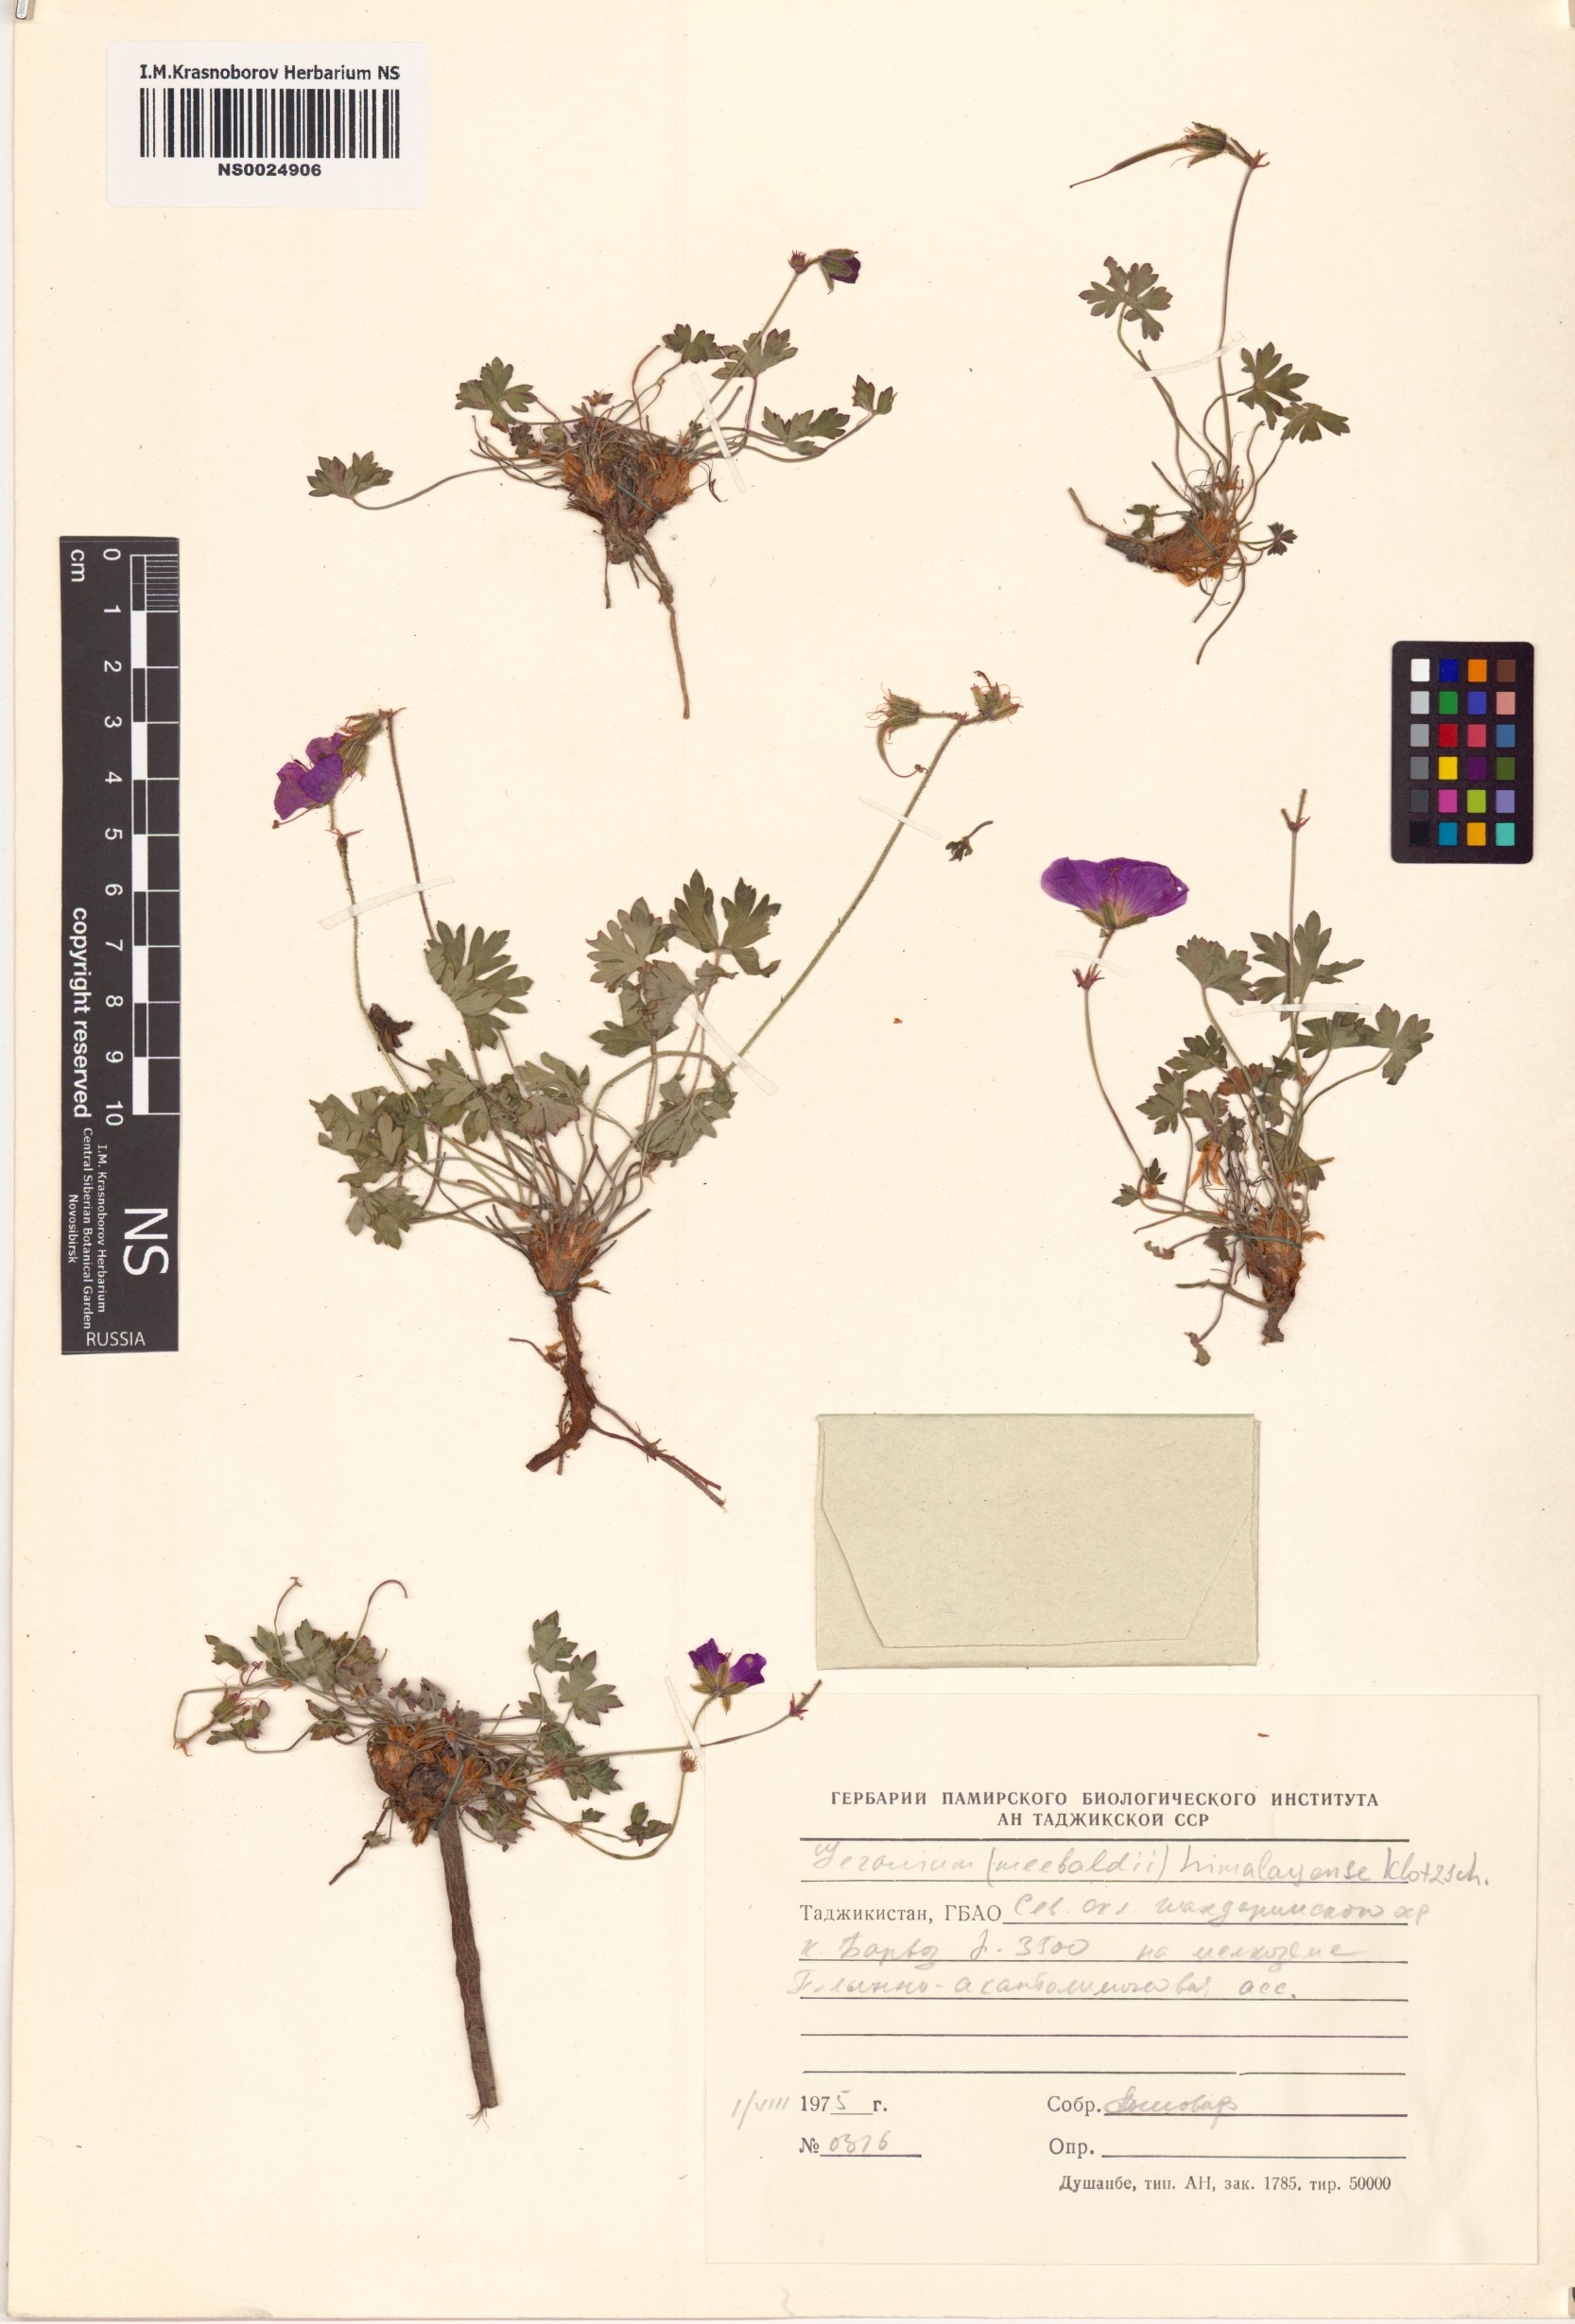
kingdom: Plantae
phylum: Tracheophyta
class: Magnoliopsida
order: Geraniales
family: Geraniaceae
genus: Geranium
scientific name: Geranium himalayense
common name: Himalayan crane's-bill
